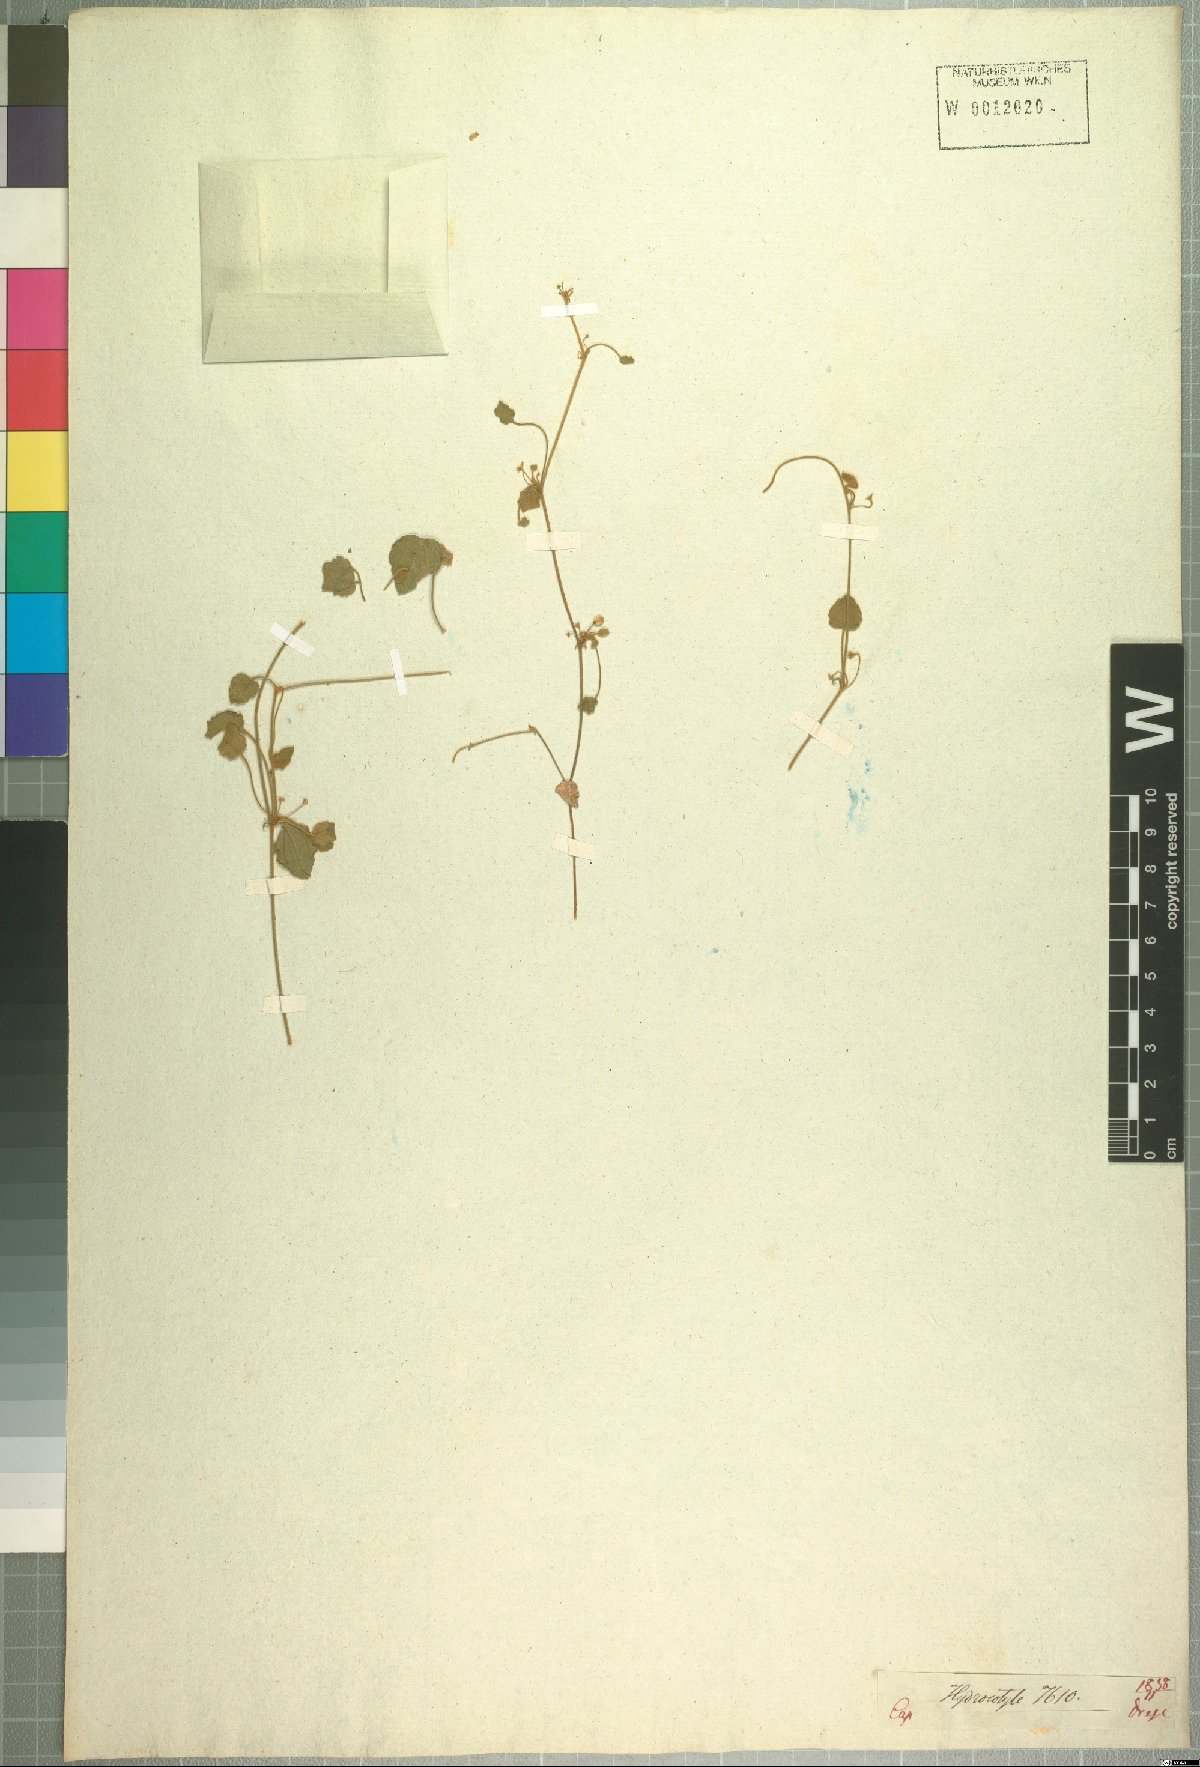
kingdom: Plantae
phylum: Tracheophyta
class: Magnoliopsida
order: Apiales
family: Apiaceae
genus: Centella
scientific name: Centella villosa
